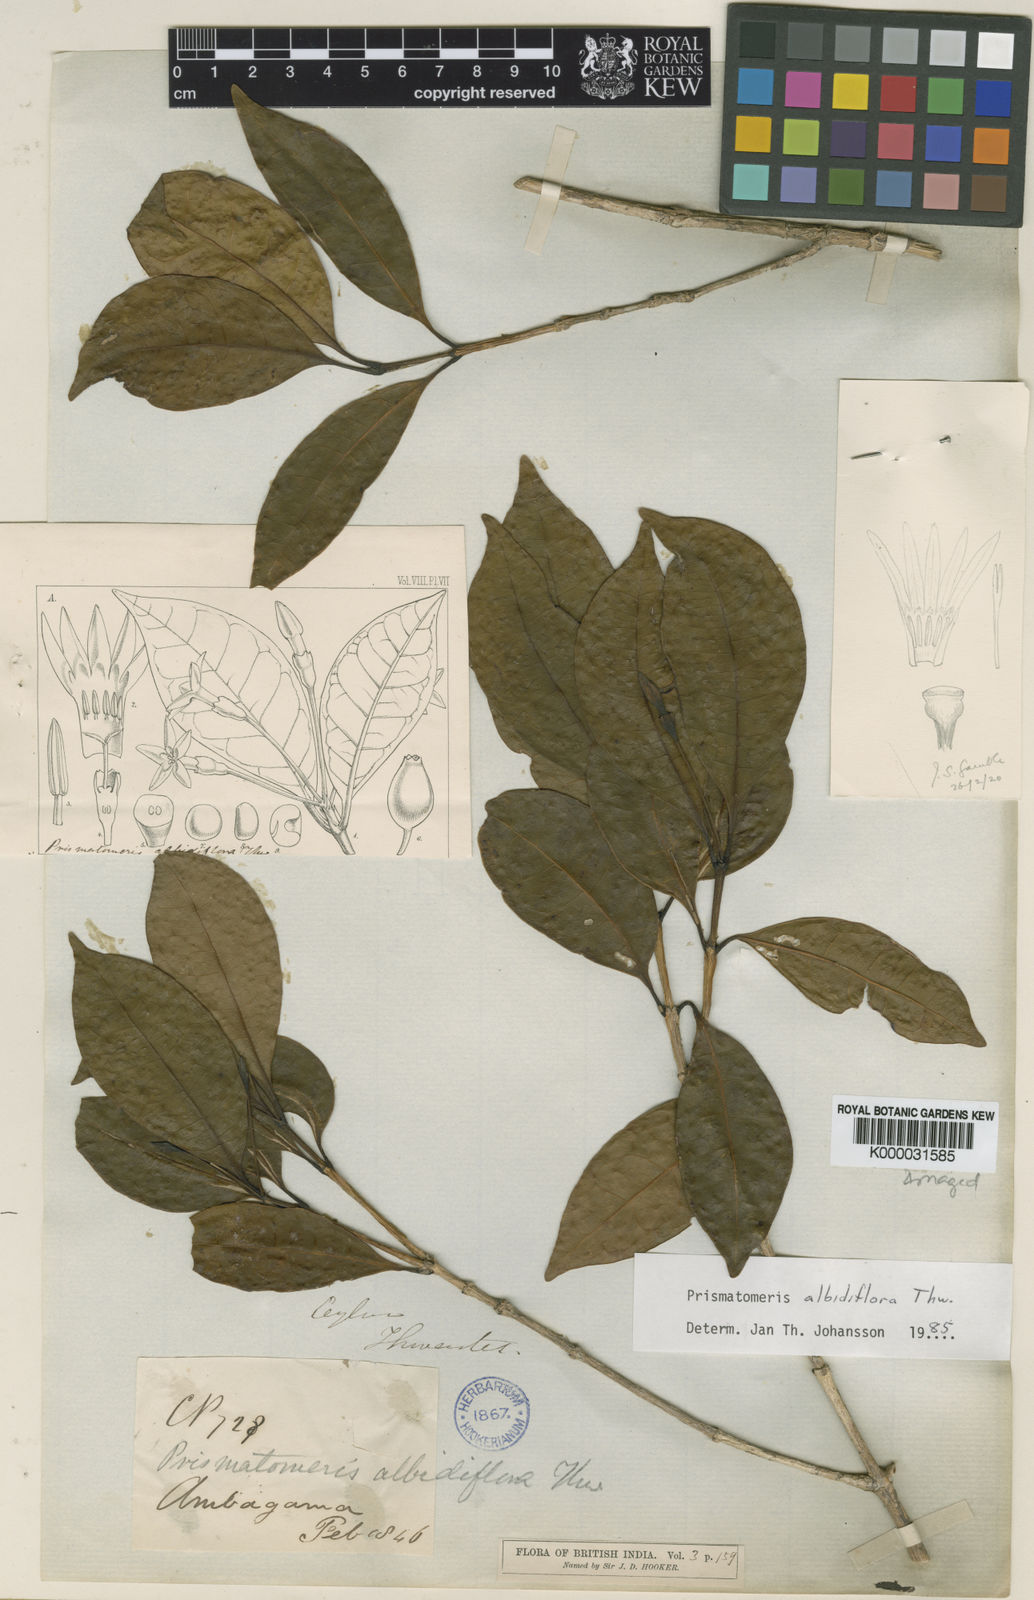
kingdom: Plantae
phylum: Tracheophyta
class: Magnoliopsida
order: Gentianales
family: Rubiaceae
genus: Prismatomeris
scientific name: Prismatomeris tetrandra
